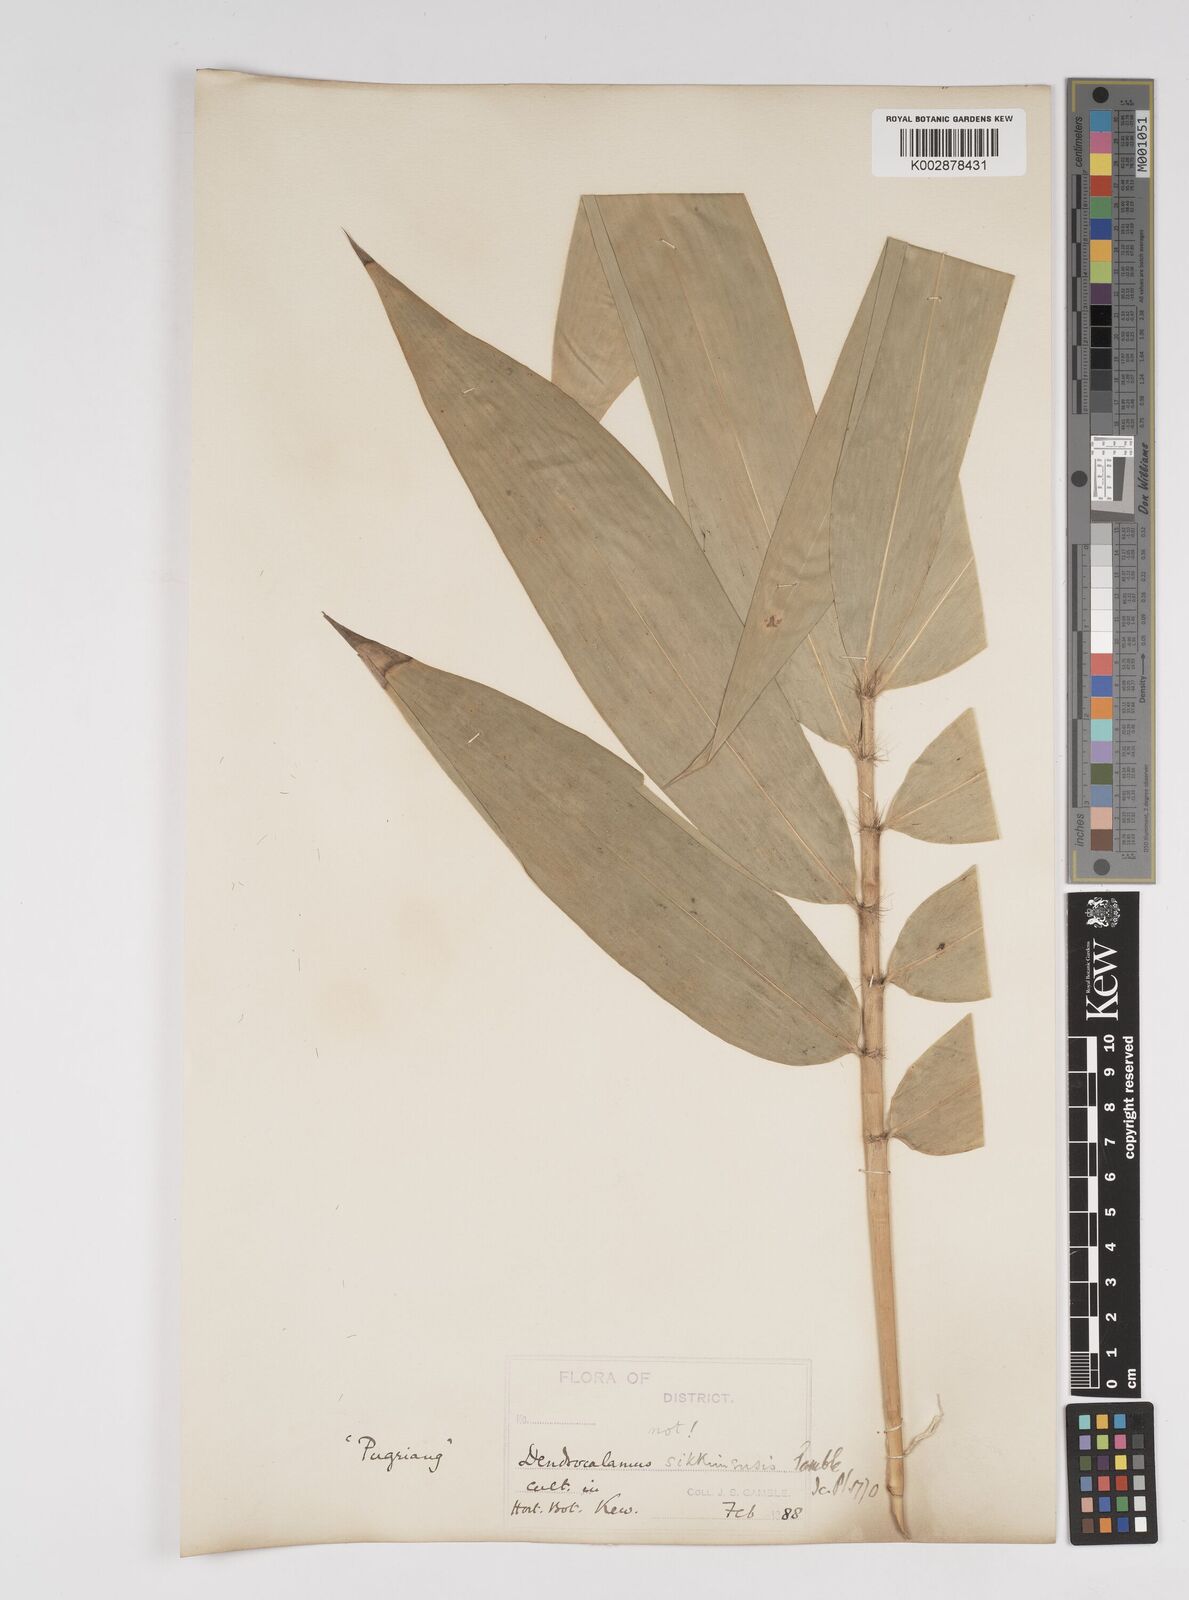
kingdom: Plantae
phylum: Tracheophyta
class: Liliopsida
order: Poales
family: Poaceae
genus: Dendrocalamus
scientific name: Dendrocalamus sikkimensis
